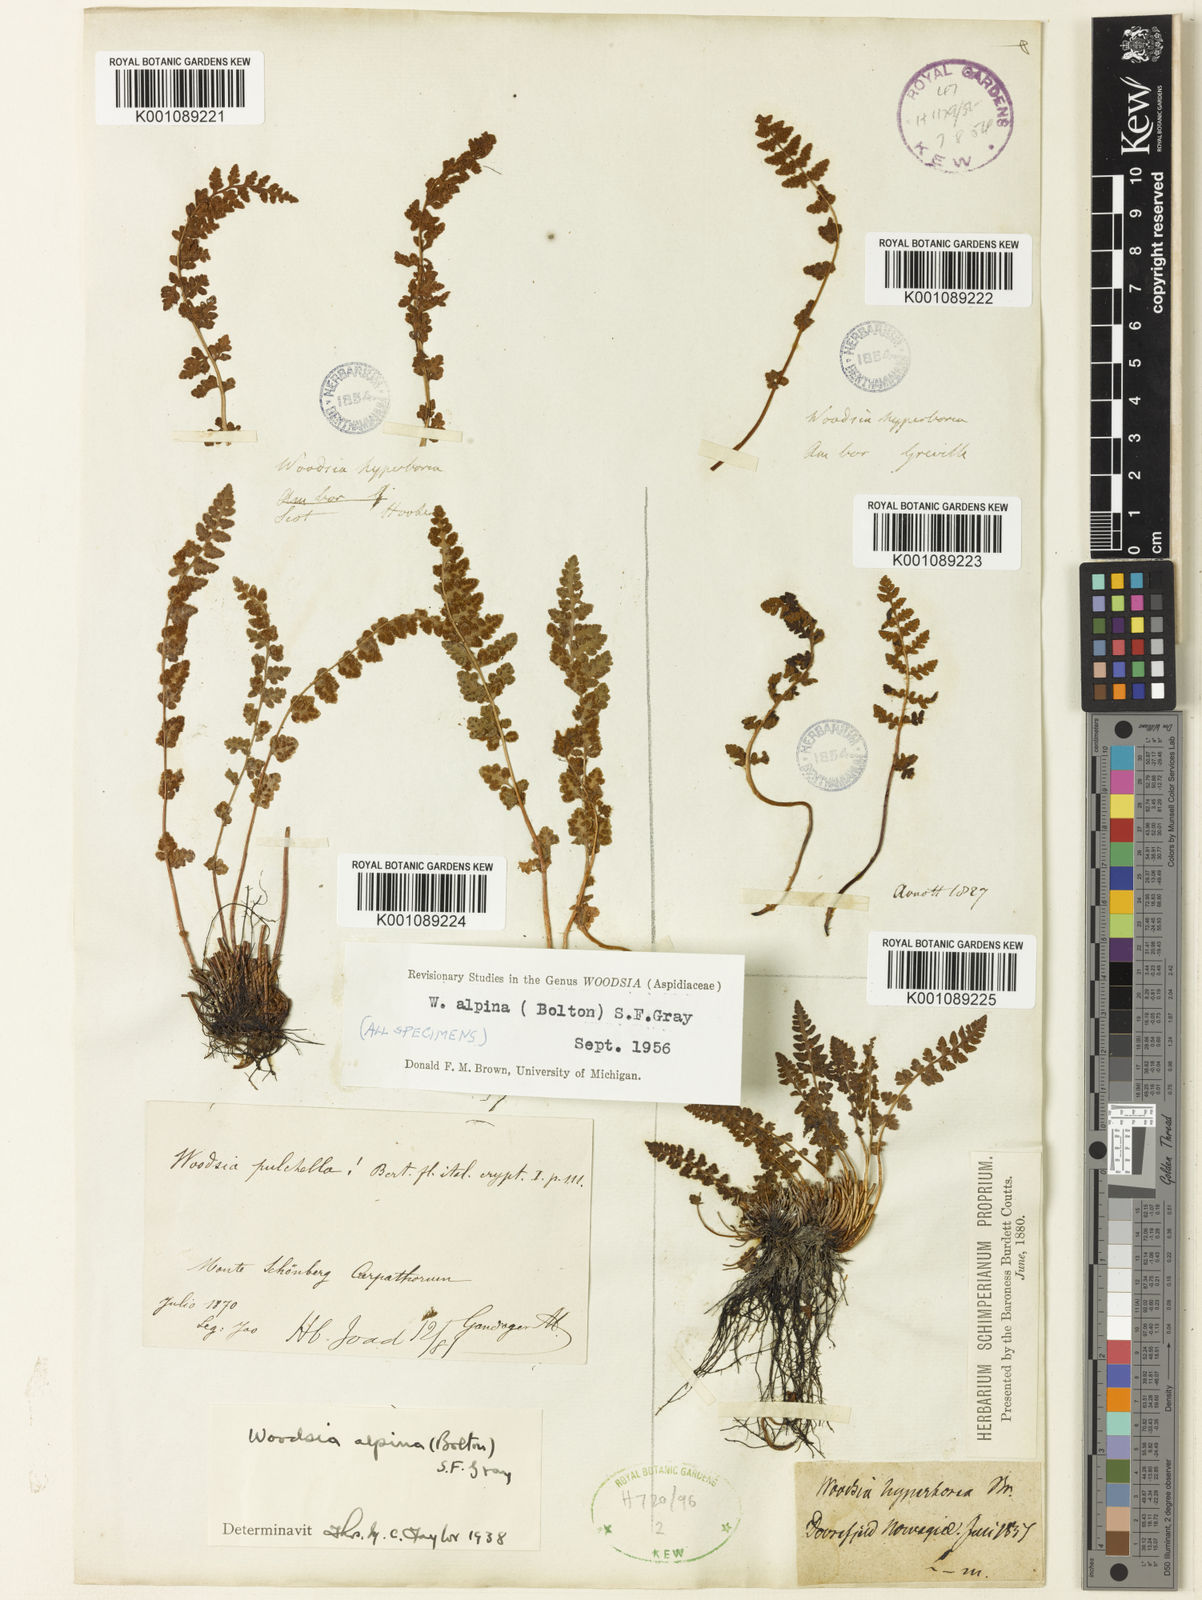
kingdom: Plantae
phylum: Tracheophyta
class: Polypodiopsida
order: Polypodiales
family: Woodsiaceae
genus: Woodsia
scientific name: Woodsia alpina
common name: Alpine woodsia
